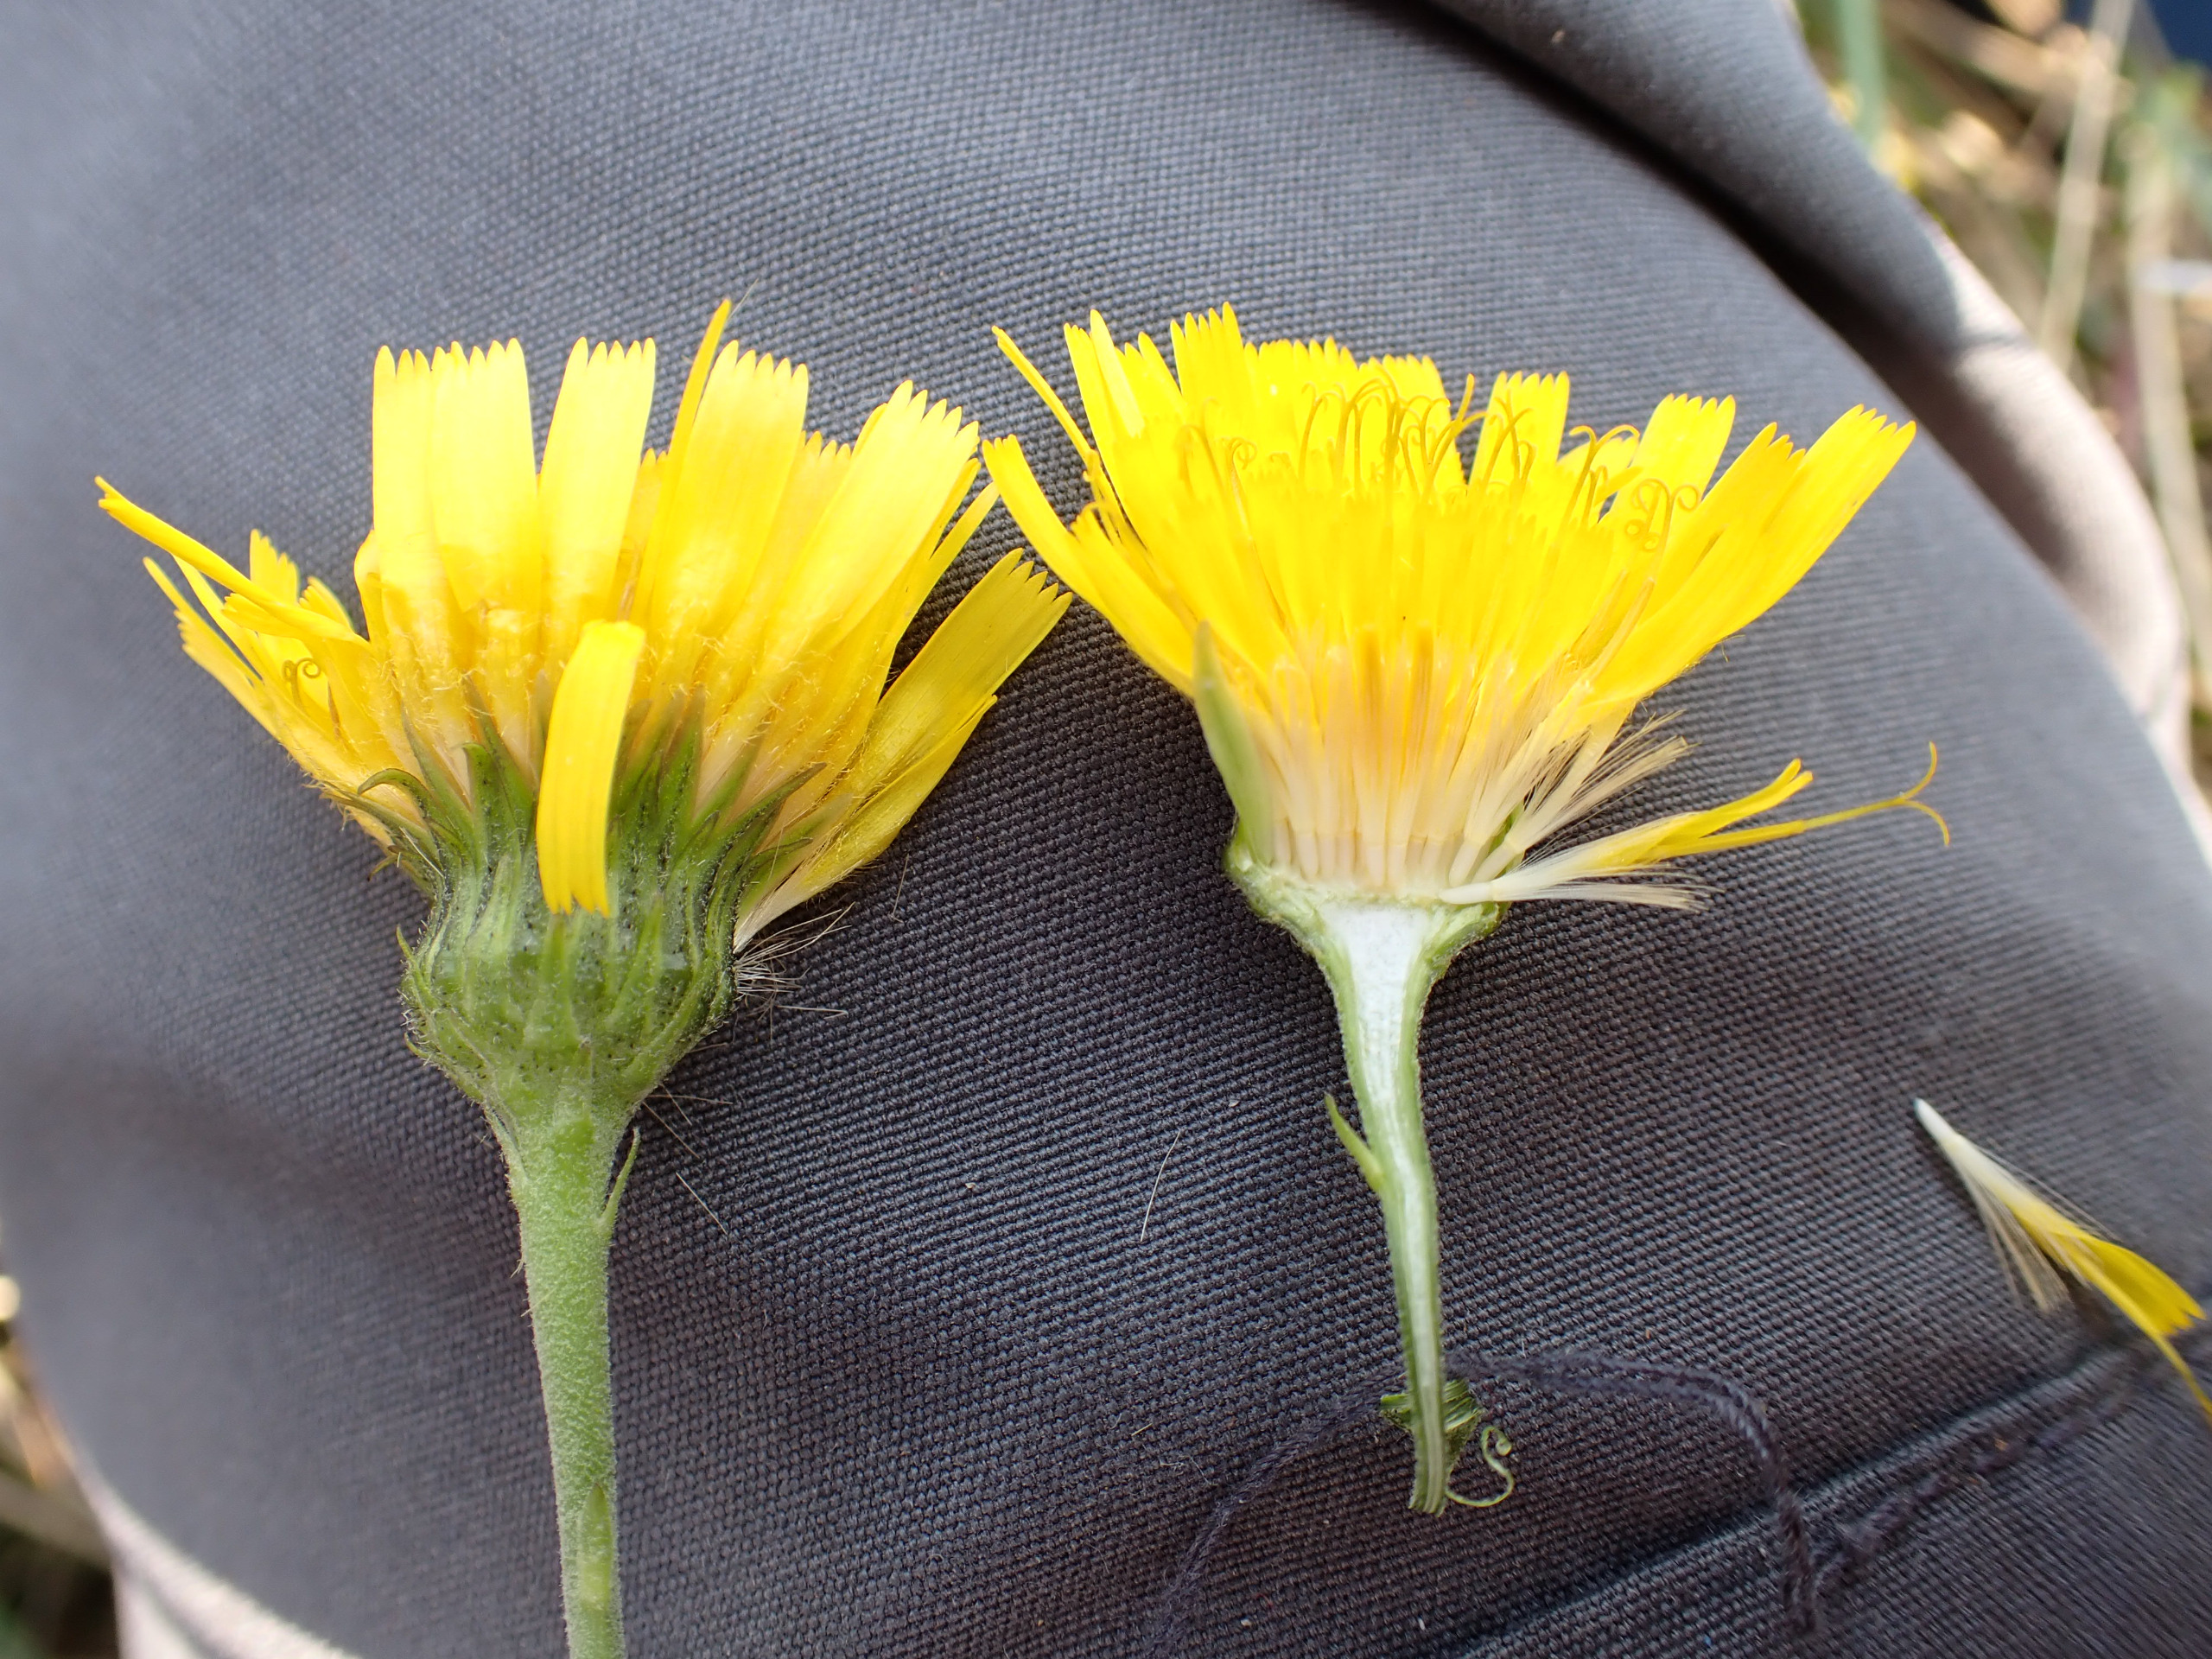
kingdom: Plantae
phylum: Tracheophyta
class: Magnoliopsida
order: Asterales
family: Asteraceae
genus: Hieracium
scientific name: Hieracium umbellatum
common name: Smalbladet høgeurt
